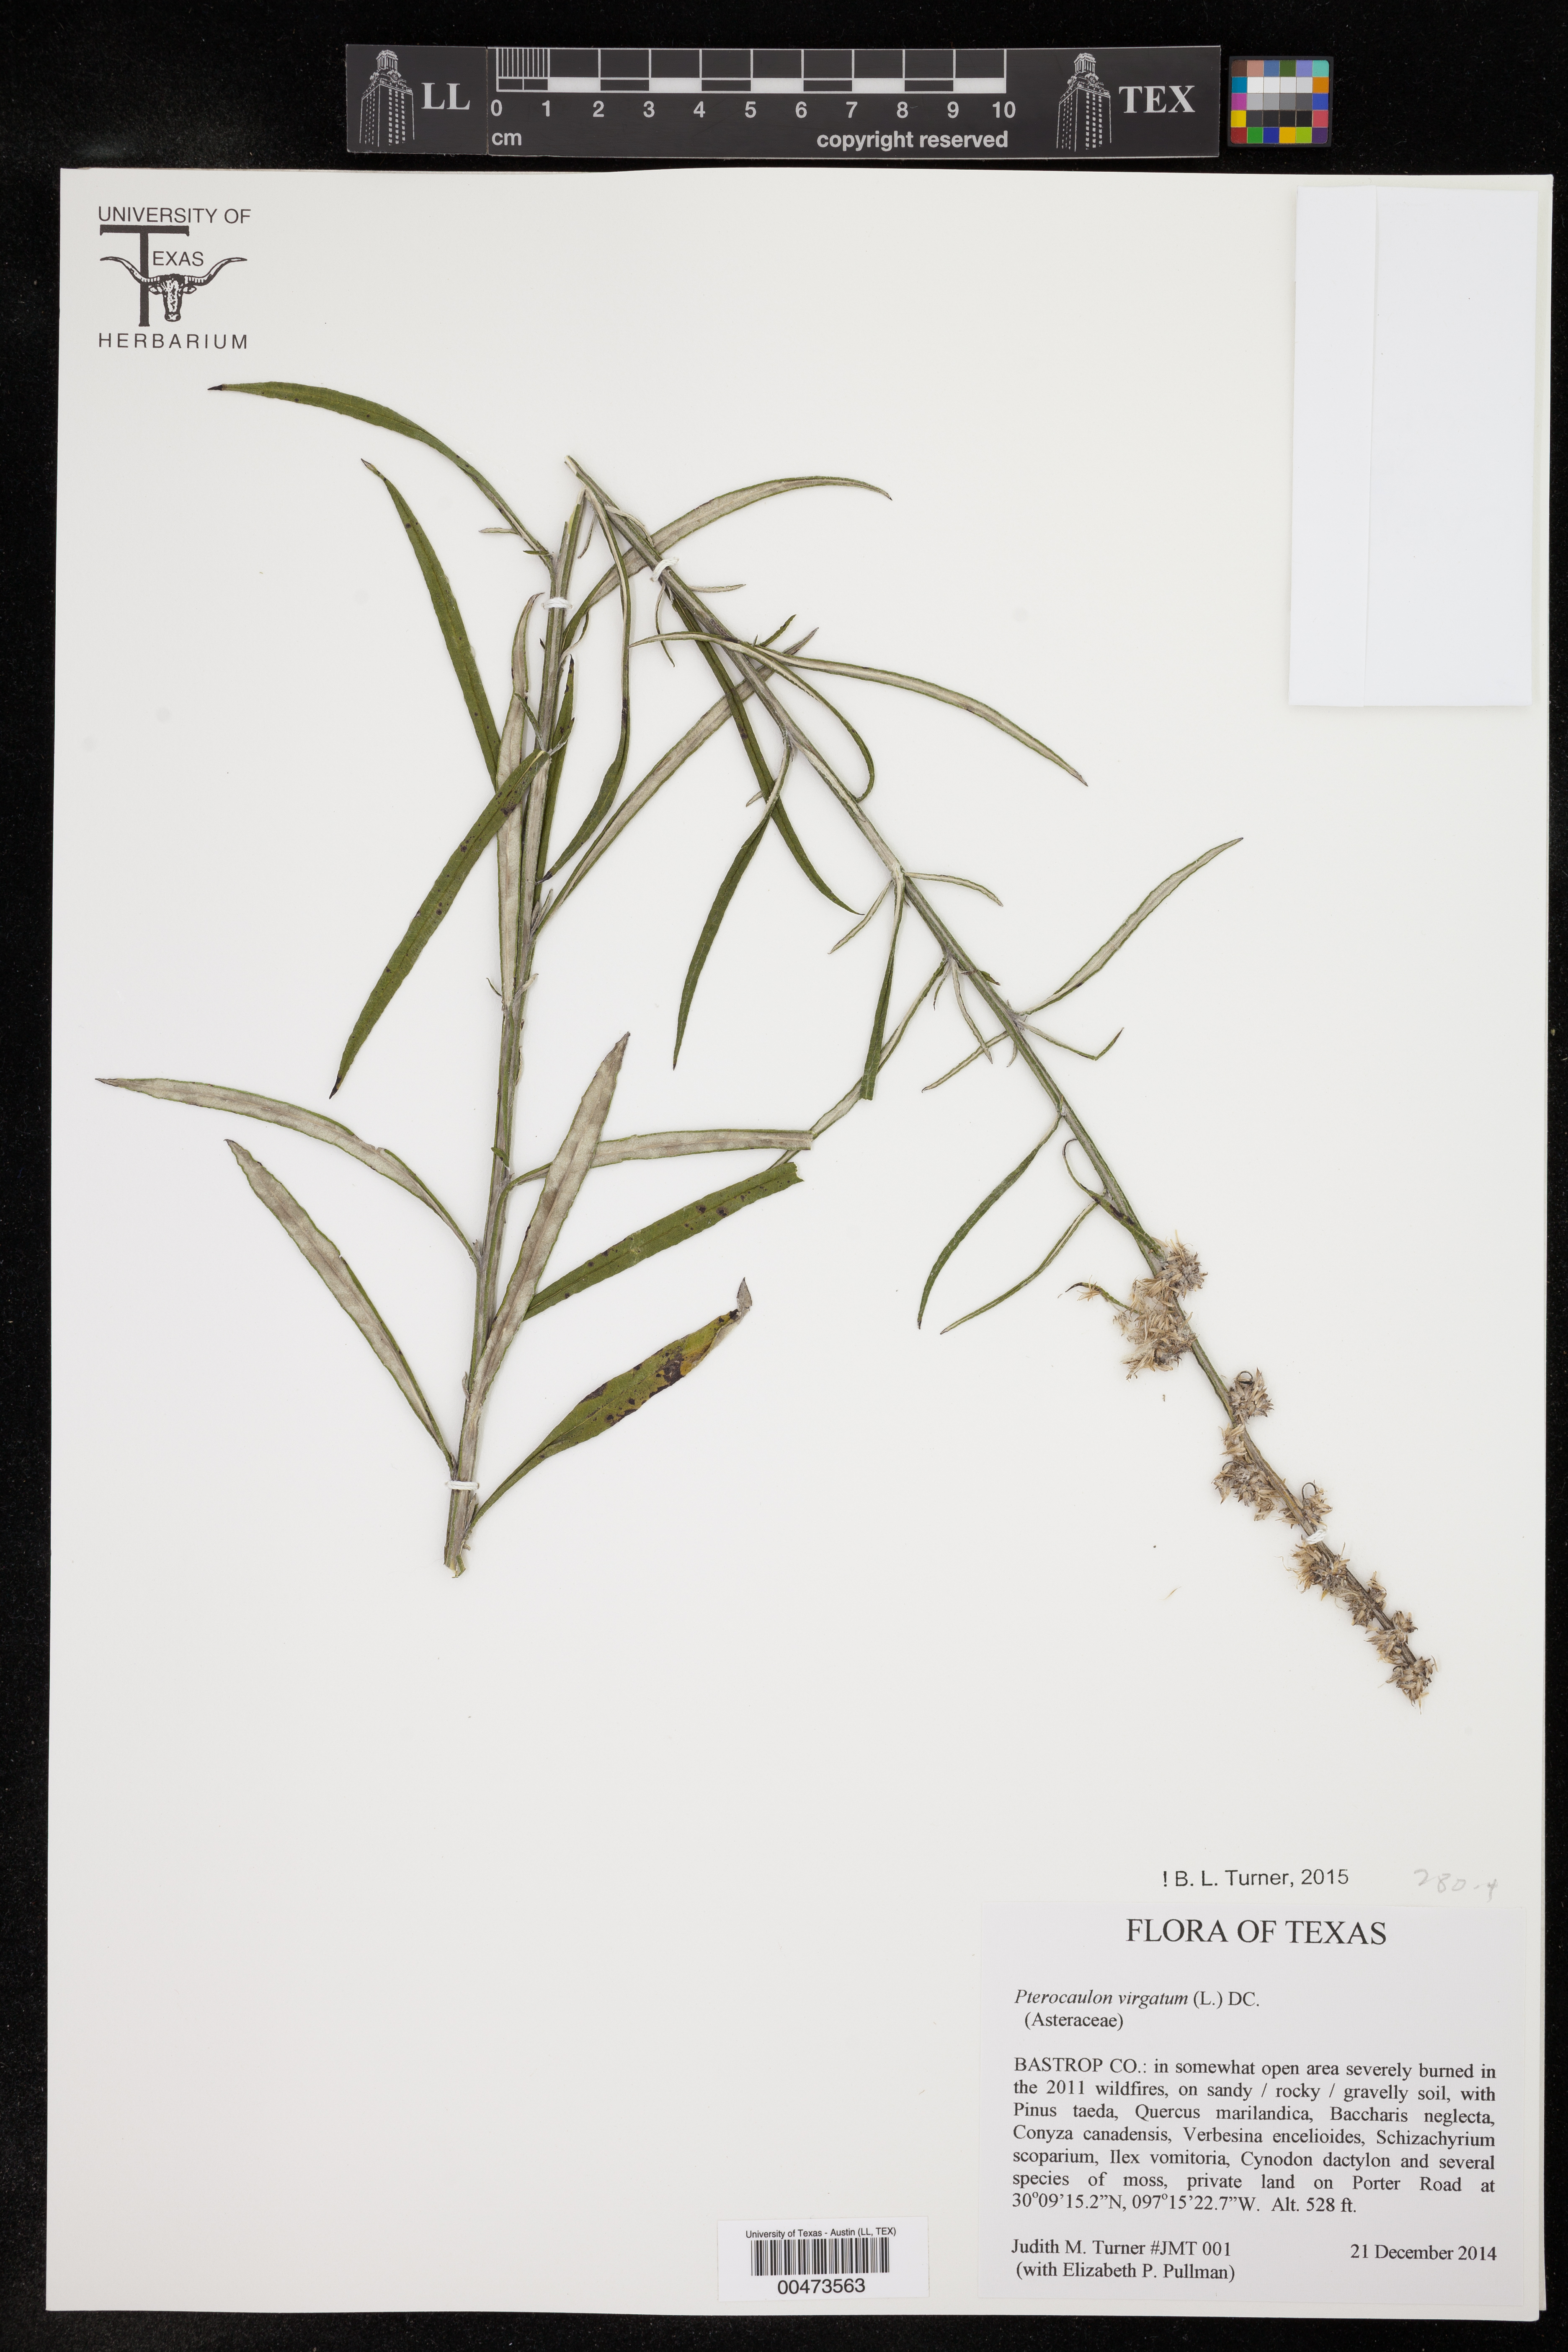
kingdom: Plantae
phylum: Tracheophyta
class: Magnoliopsida
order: Asterales
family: Asteraceae
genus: Pterocaulon
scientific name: Pterocaulon virgatum
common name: Wand blackroot
